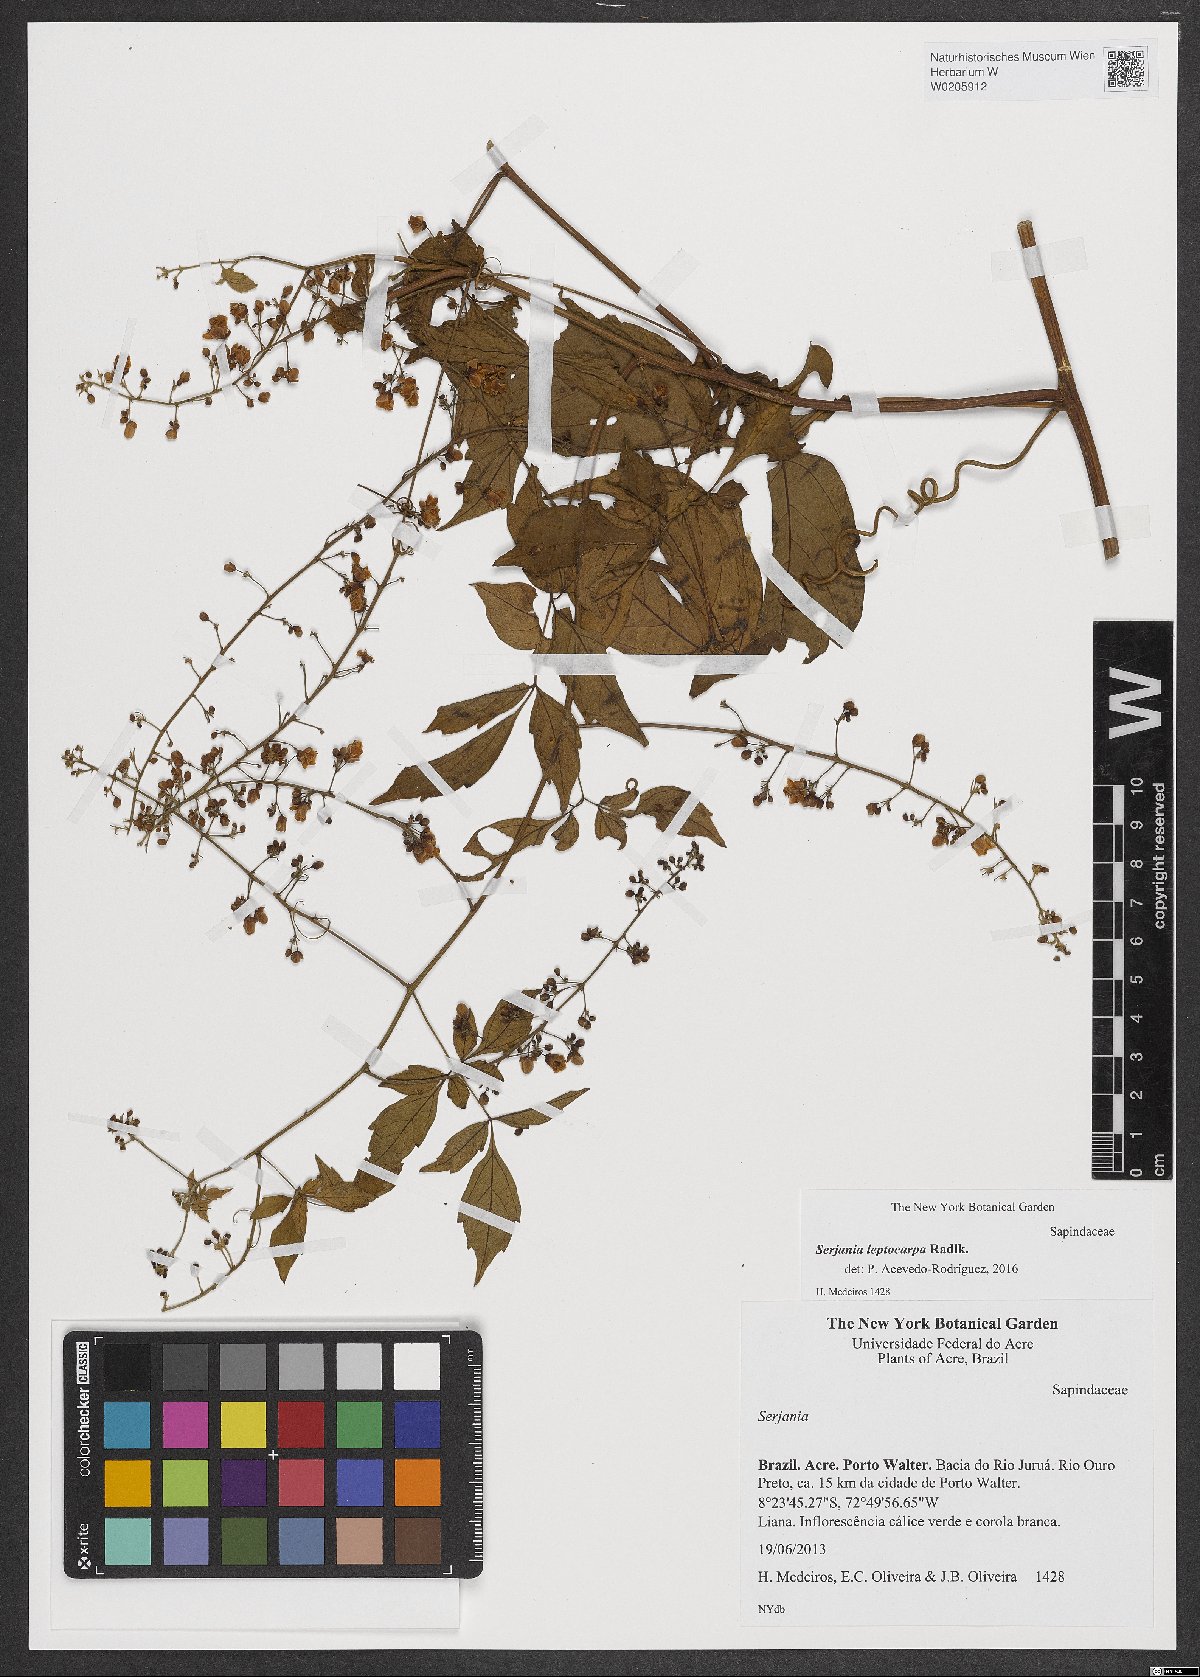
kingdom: Plantae
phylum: Tracheophyta
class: Magnoliopsida
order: Sapindales
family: Sapindaceae
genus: Serjania
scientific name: Serjania leptocarpa
